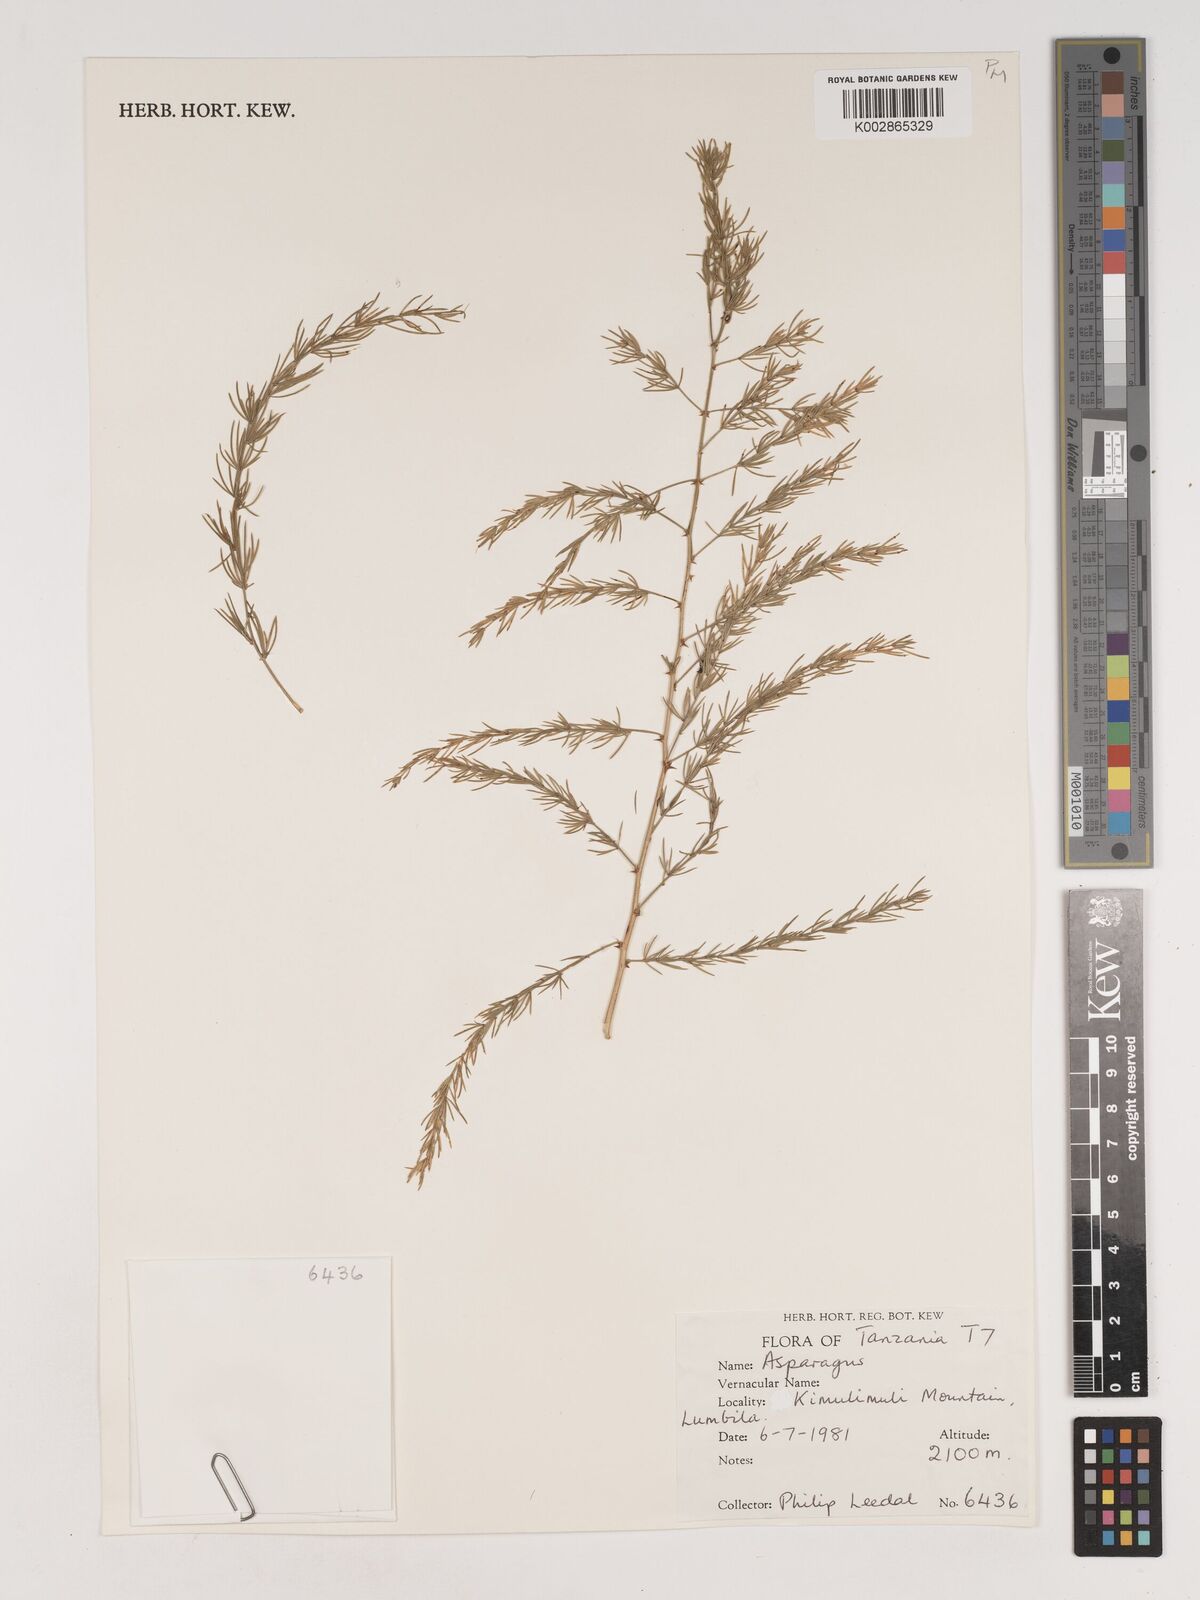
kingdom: Plantae
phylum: Tracheophyta
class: Liliopsida
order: Asparagales
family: Asparagaceae
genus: Asparagus
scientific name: Asparagus
